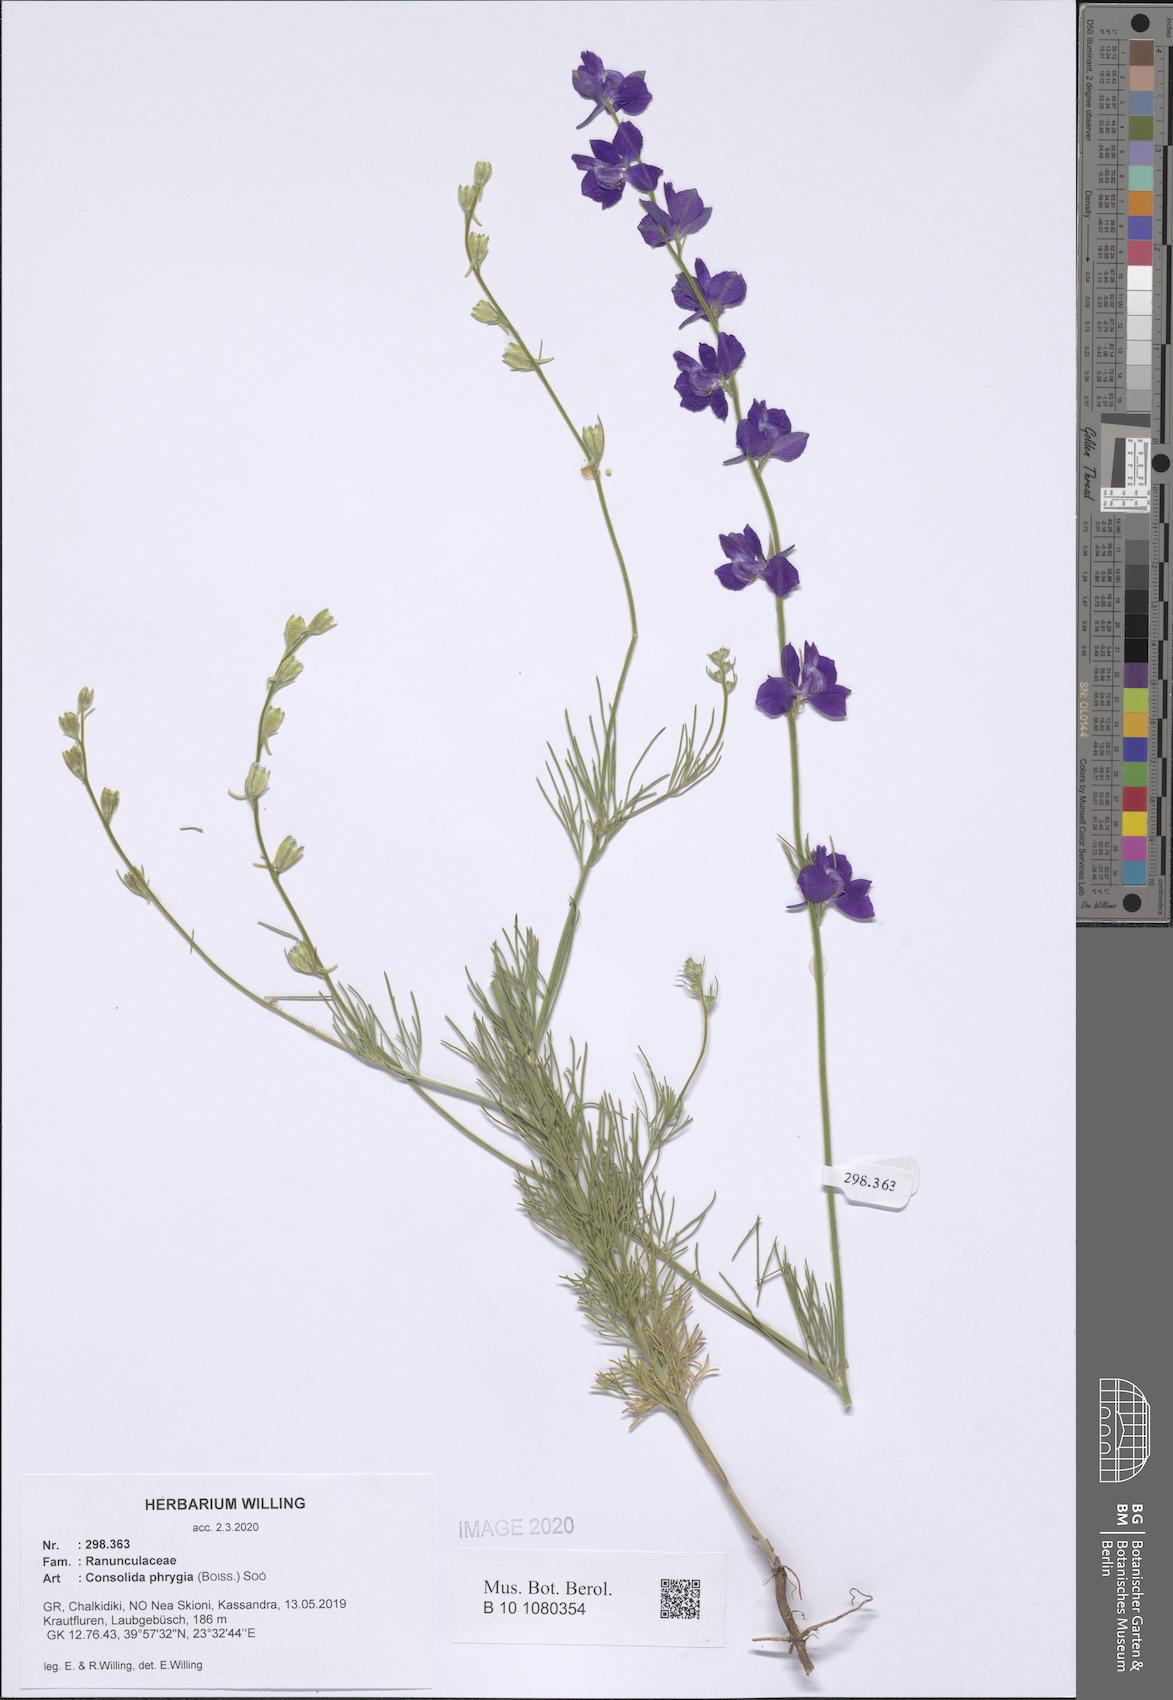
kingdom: Plantae
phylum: Tracheophyta
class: Magnoliopsida
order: Ranunculales
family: Ranunculaceae
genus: Delphinium
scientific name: Delphinium phrygium
